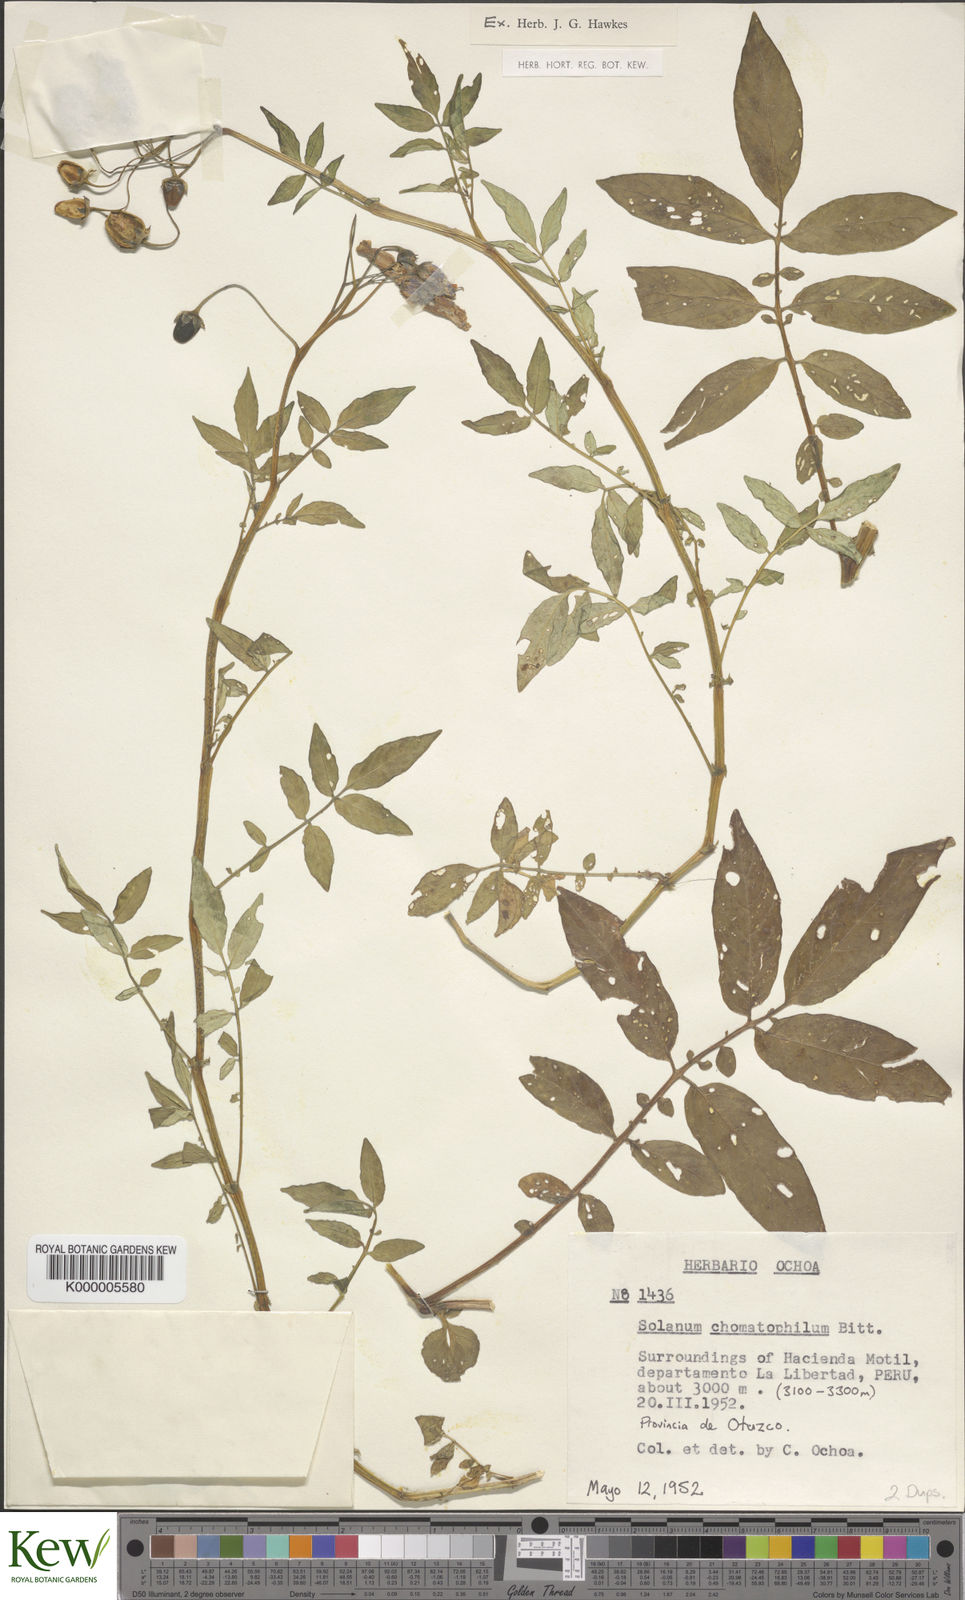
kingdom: Plantae
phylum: Tracheophyta
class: Magnoliopsida
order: Solanales
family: Solanaceae
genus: Solanum
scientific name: Solanum chomatophilum
